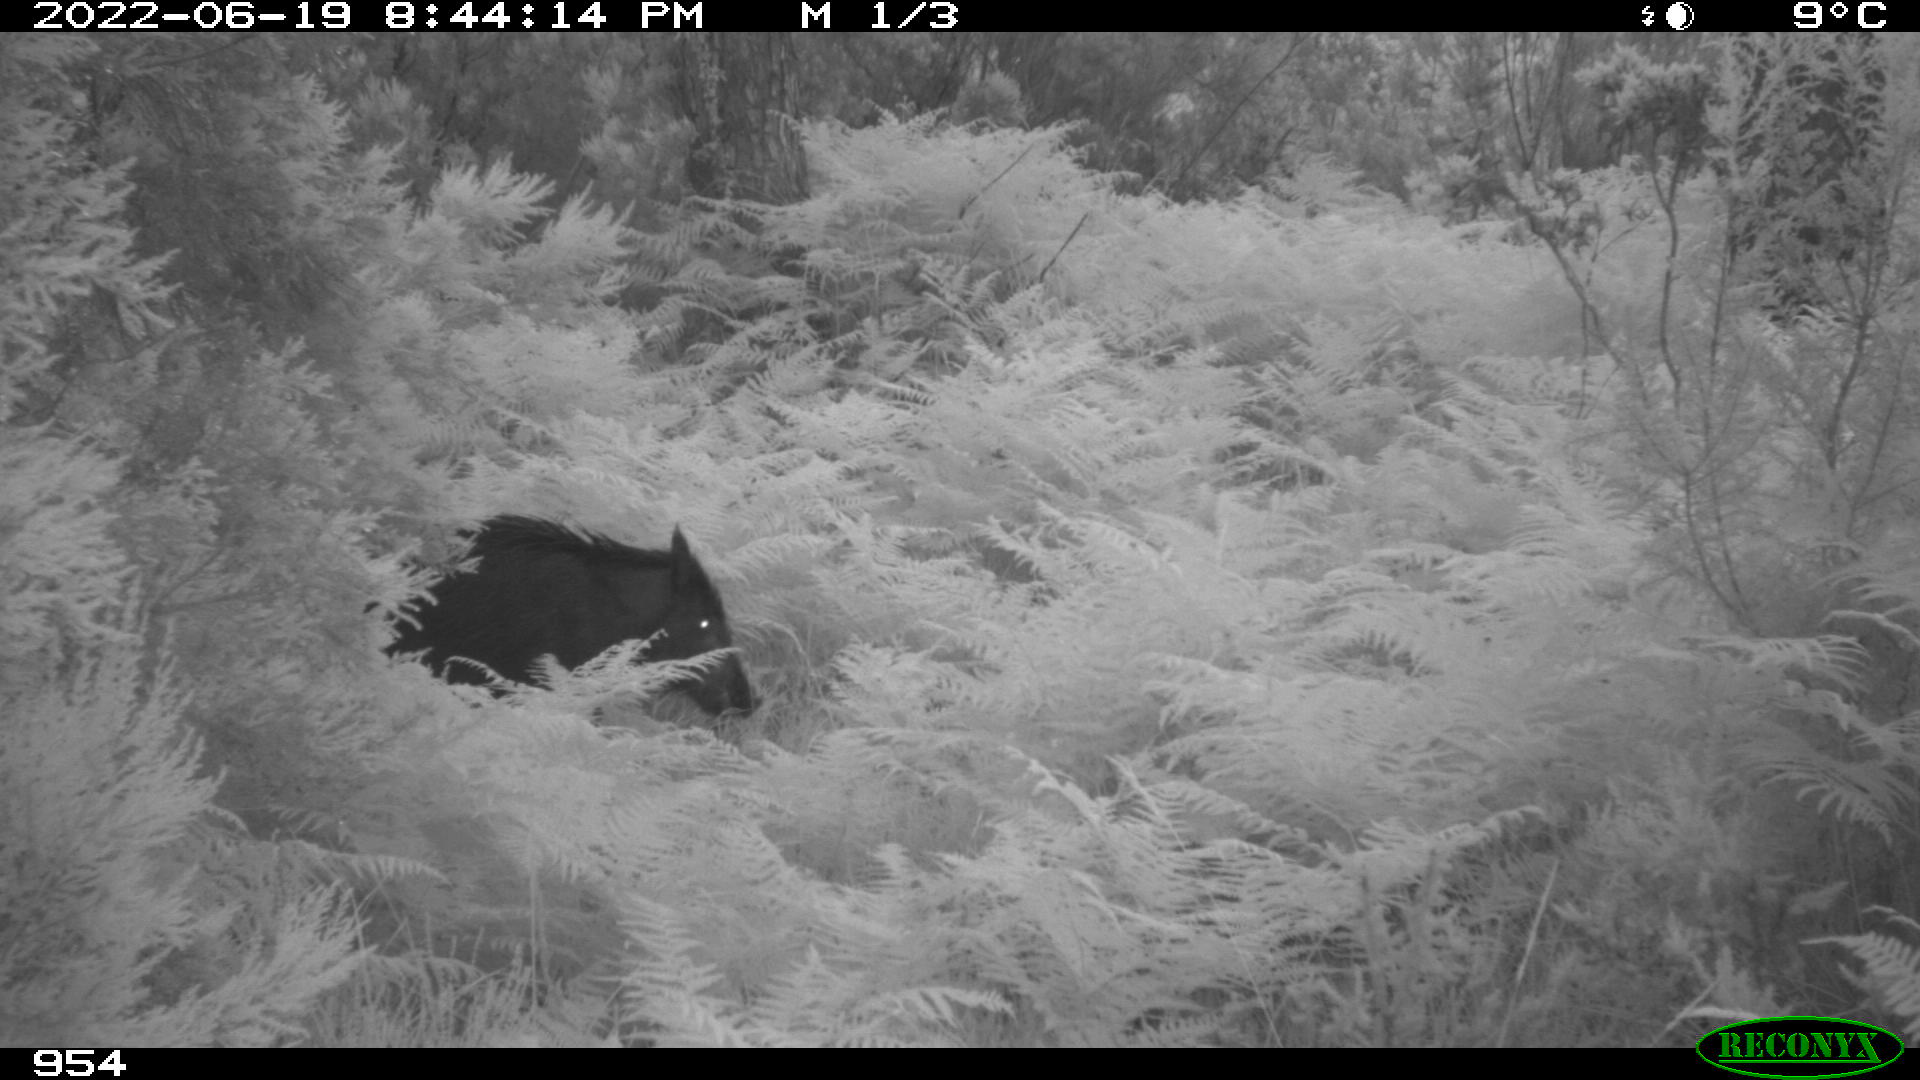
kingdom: Animalia
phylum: Chordata
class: Mammalia
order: Artiodactyla
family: Suidae
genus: Sus
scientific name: Sus scrofa
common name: Wild boar
